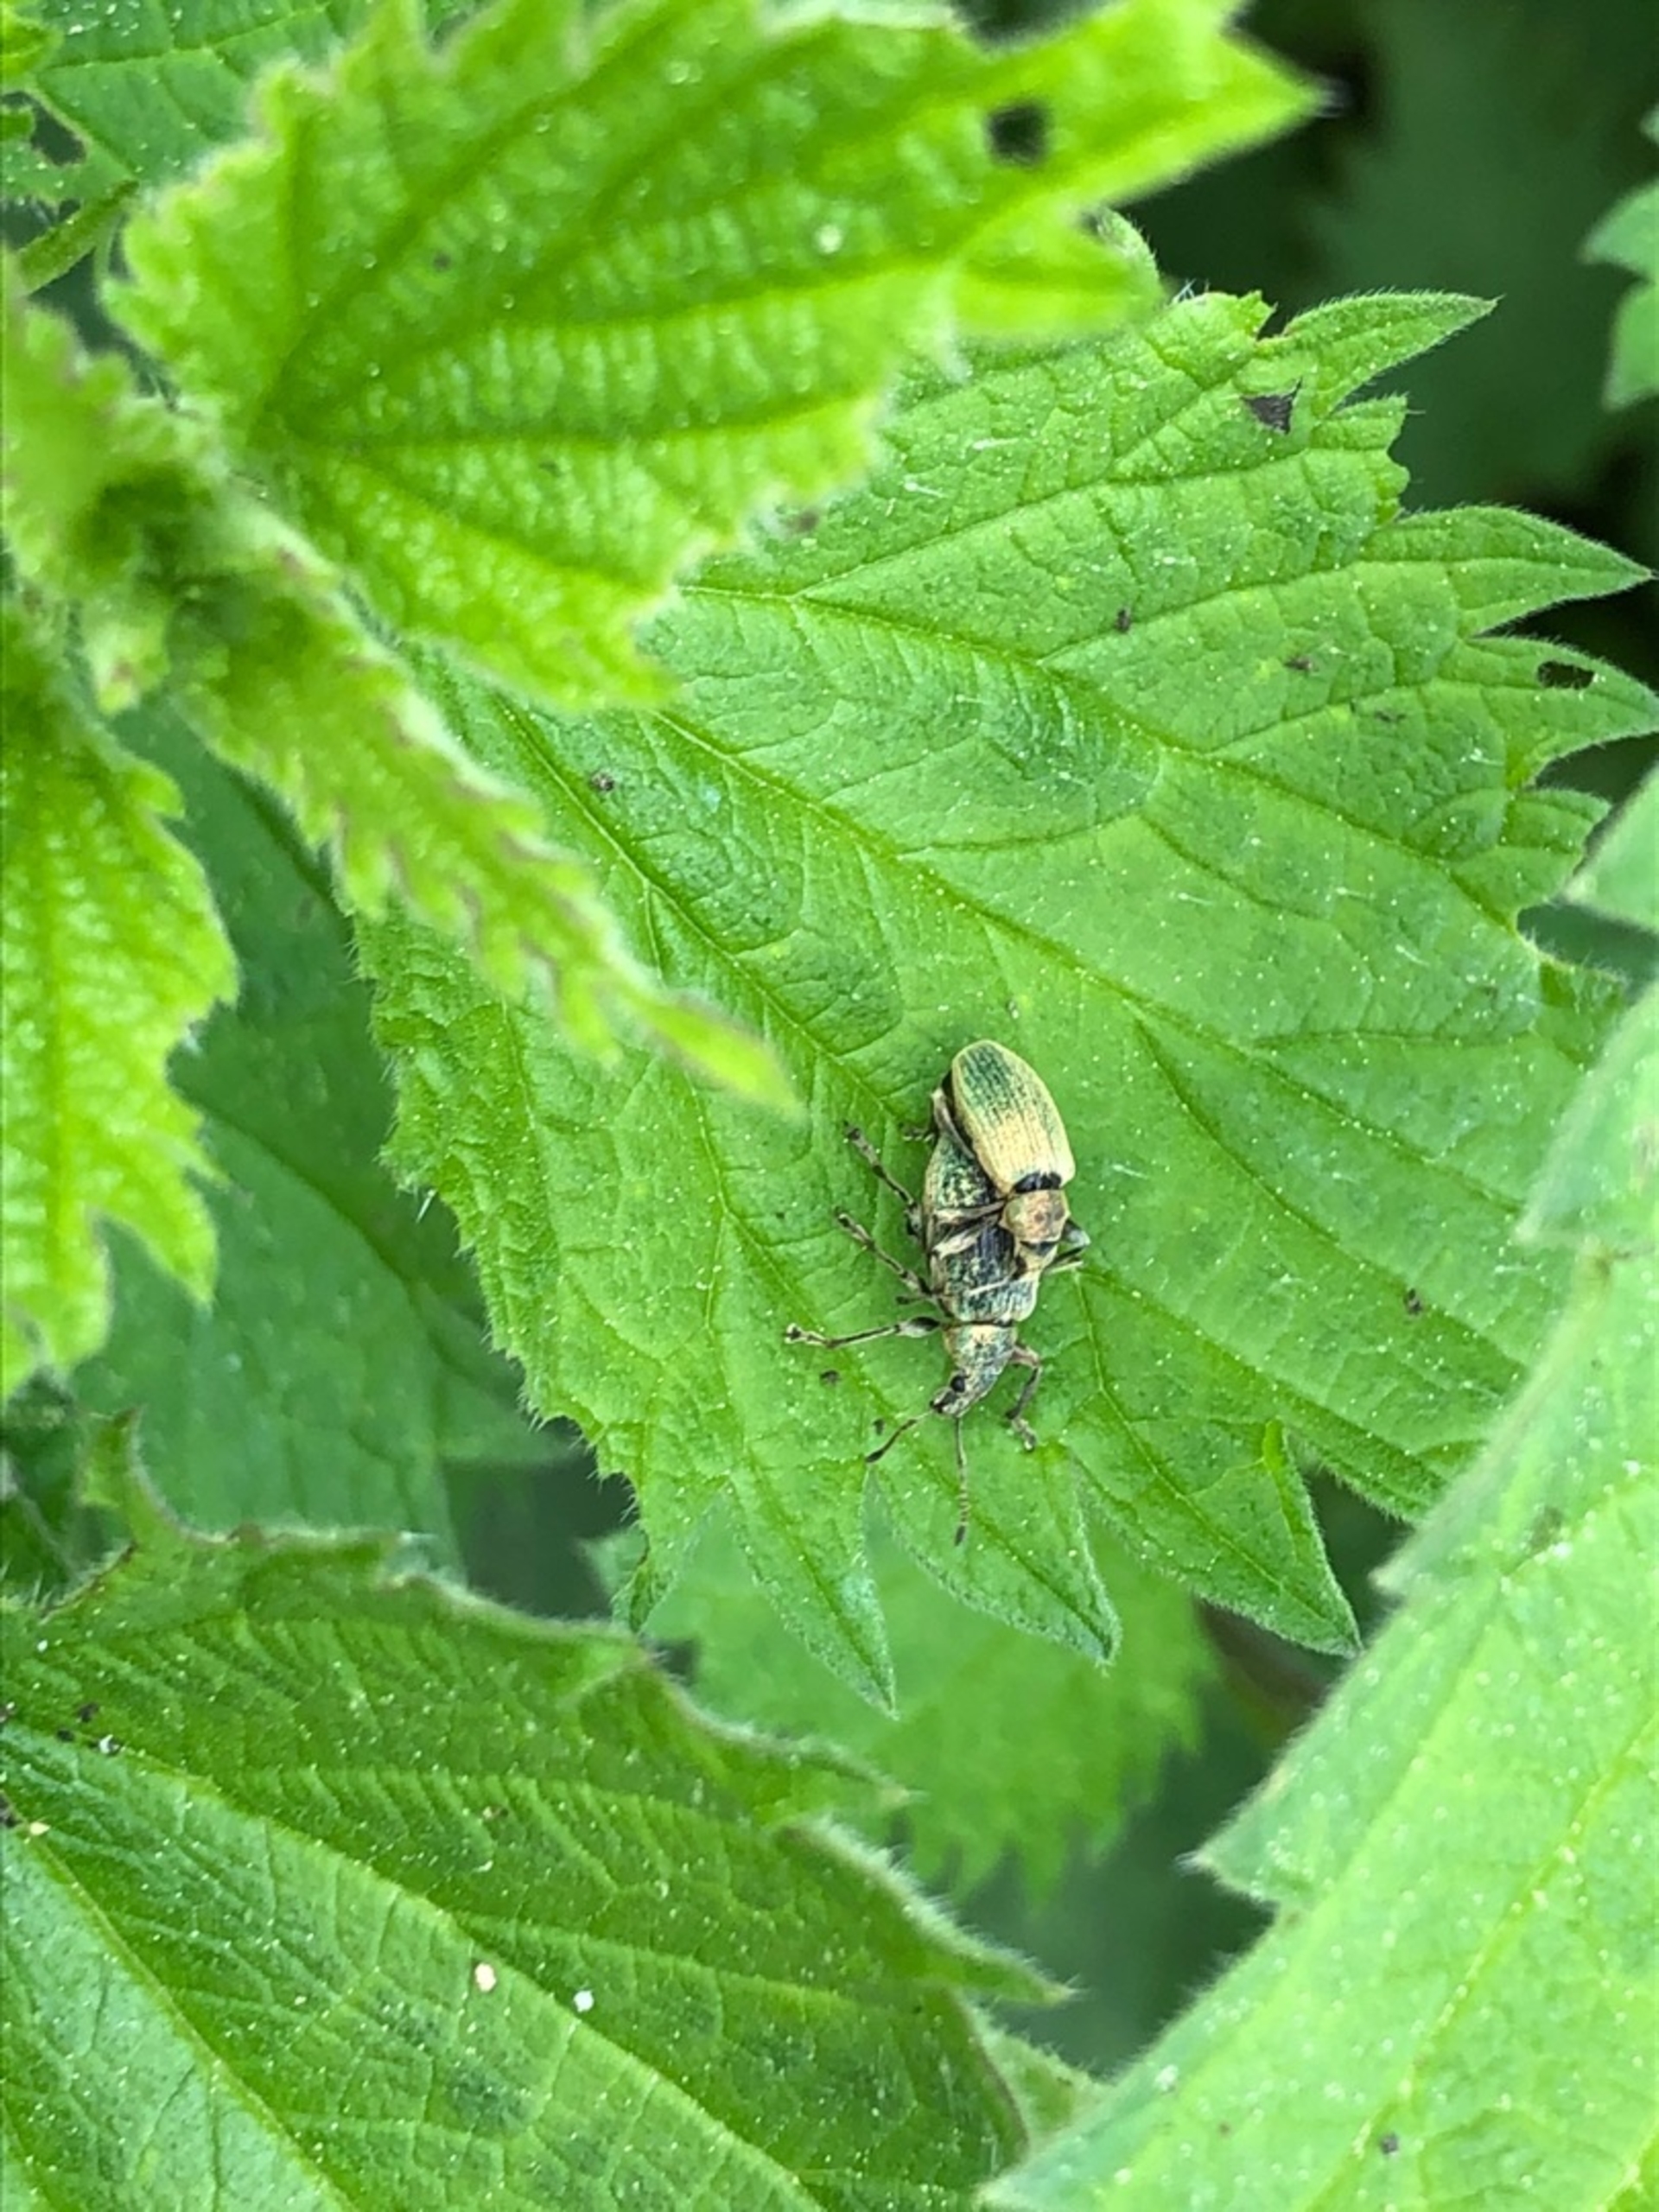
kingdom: Animalia
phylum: Arthropoda
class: Insecta
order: Coleoptera
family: Curculionidae
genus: Phyllobius
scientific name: Phyllobius pomaceus
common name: Nældesnudebille
